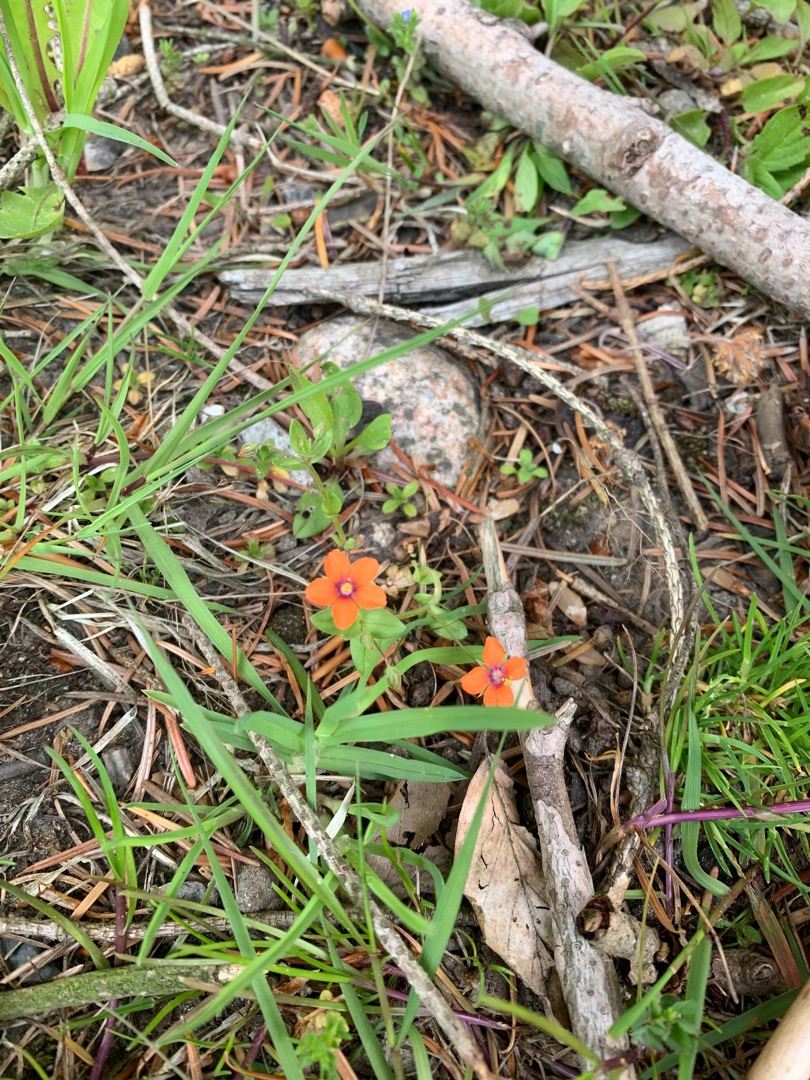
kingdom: Plantae
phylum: Tracheophyta
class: Magnoliopsida
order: Ericales
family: Primulaceae
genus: Lysimachia
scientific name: Lysimachia arvensis
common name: Rød arve
